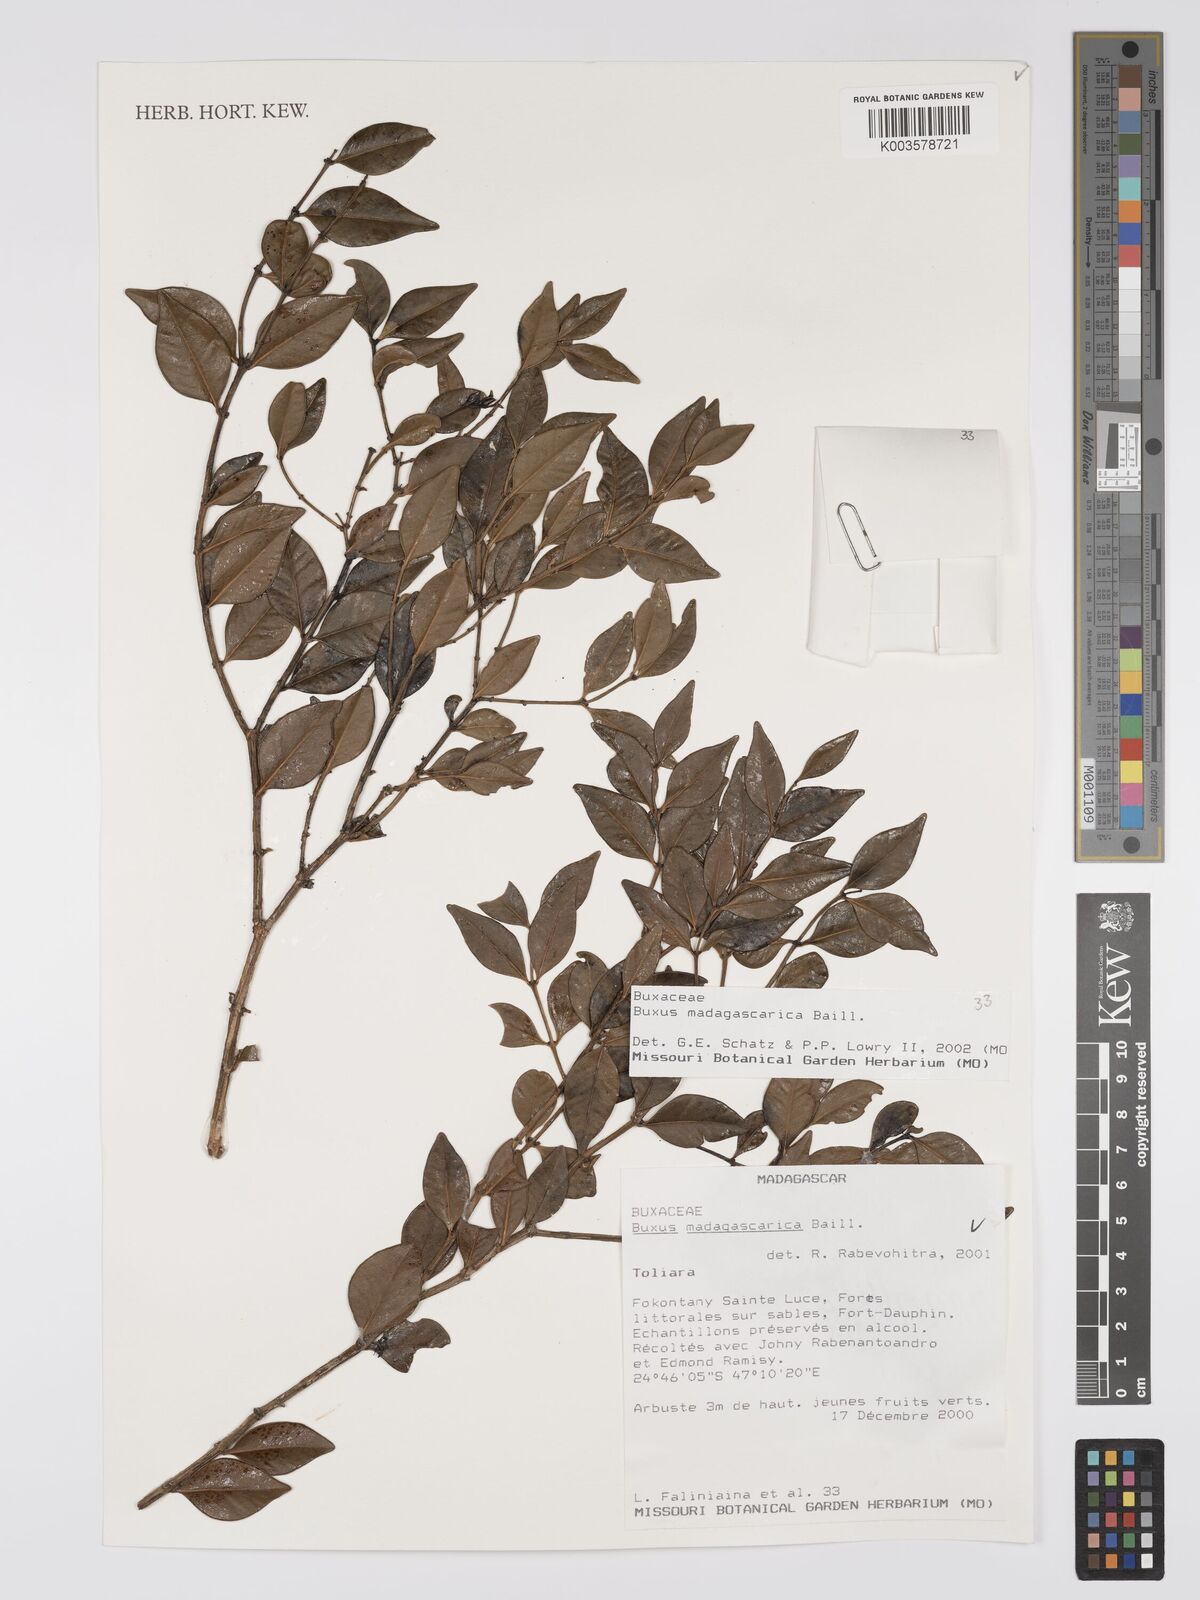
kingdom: Plantae
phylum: Tracheophyta
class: Magnoliopsida
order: Buxales
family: Buxaceae
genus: Buxus
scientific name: Buxus madagascarica
